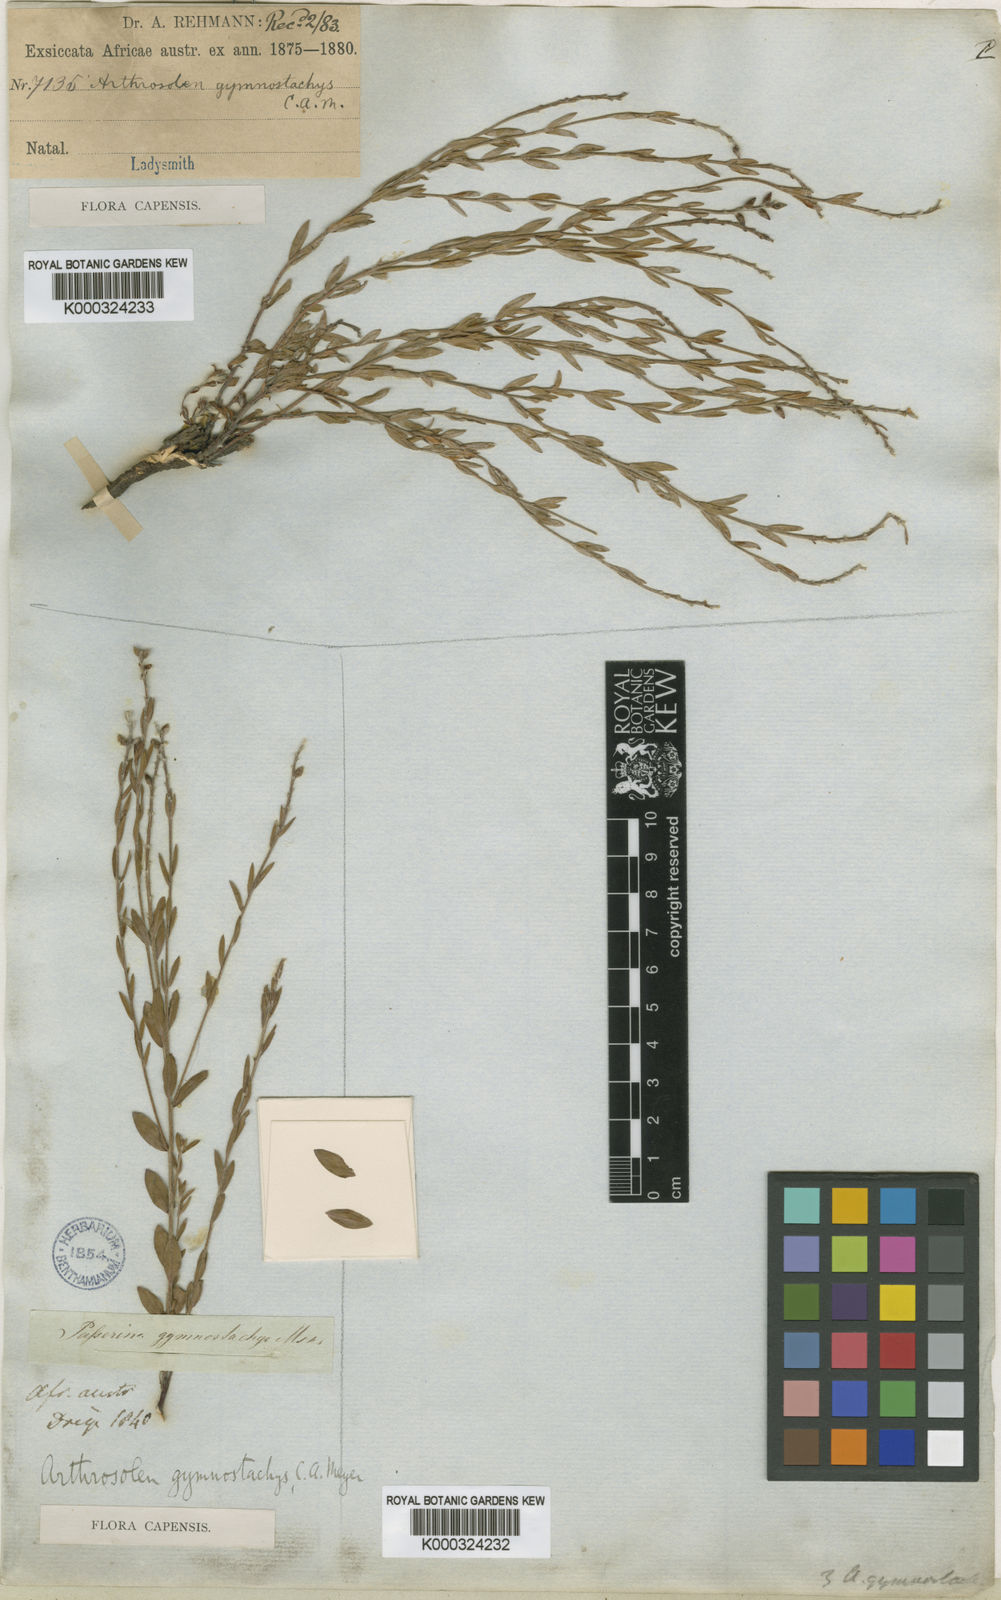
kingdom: Plantae
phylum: Tracheophyta
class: Magnoliopsida
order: Malvales
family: Thymelaeaceae
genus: Gnidia
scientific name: Gnidia gymnostachya
